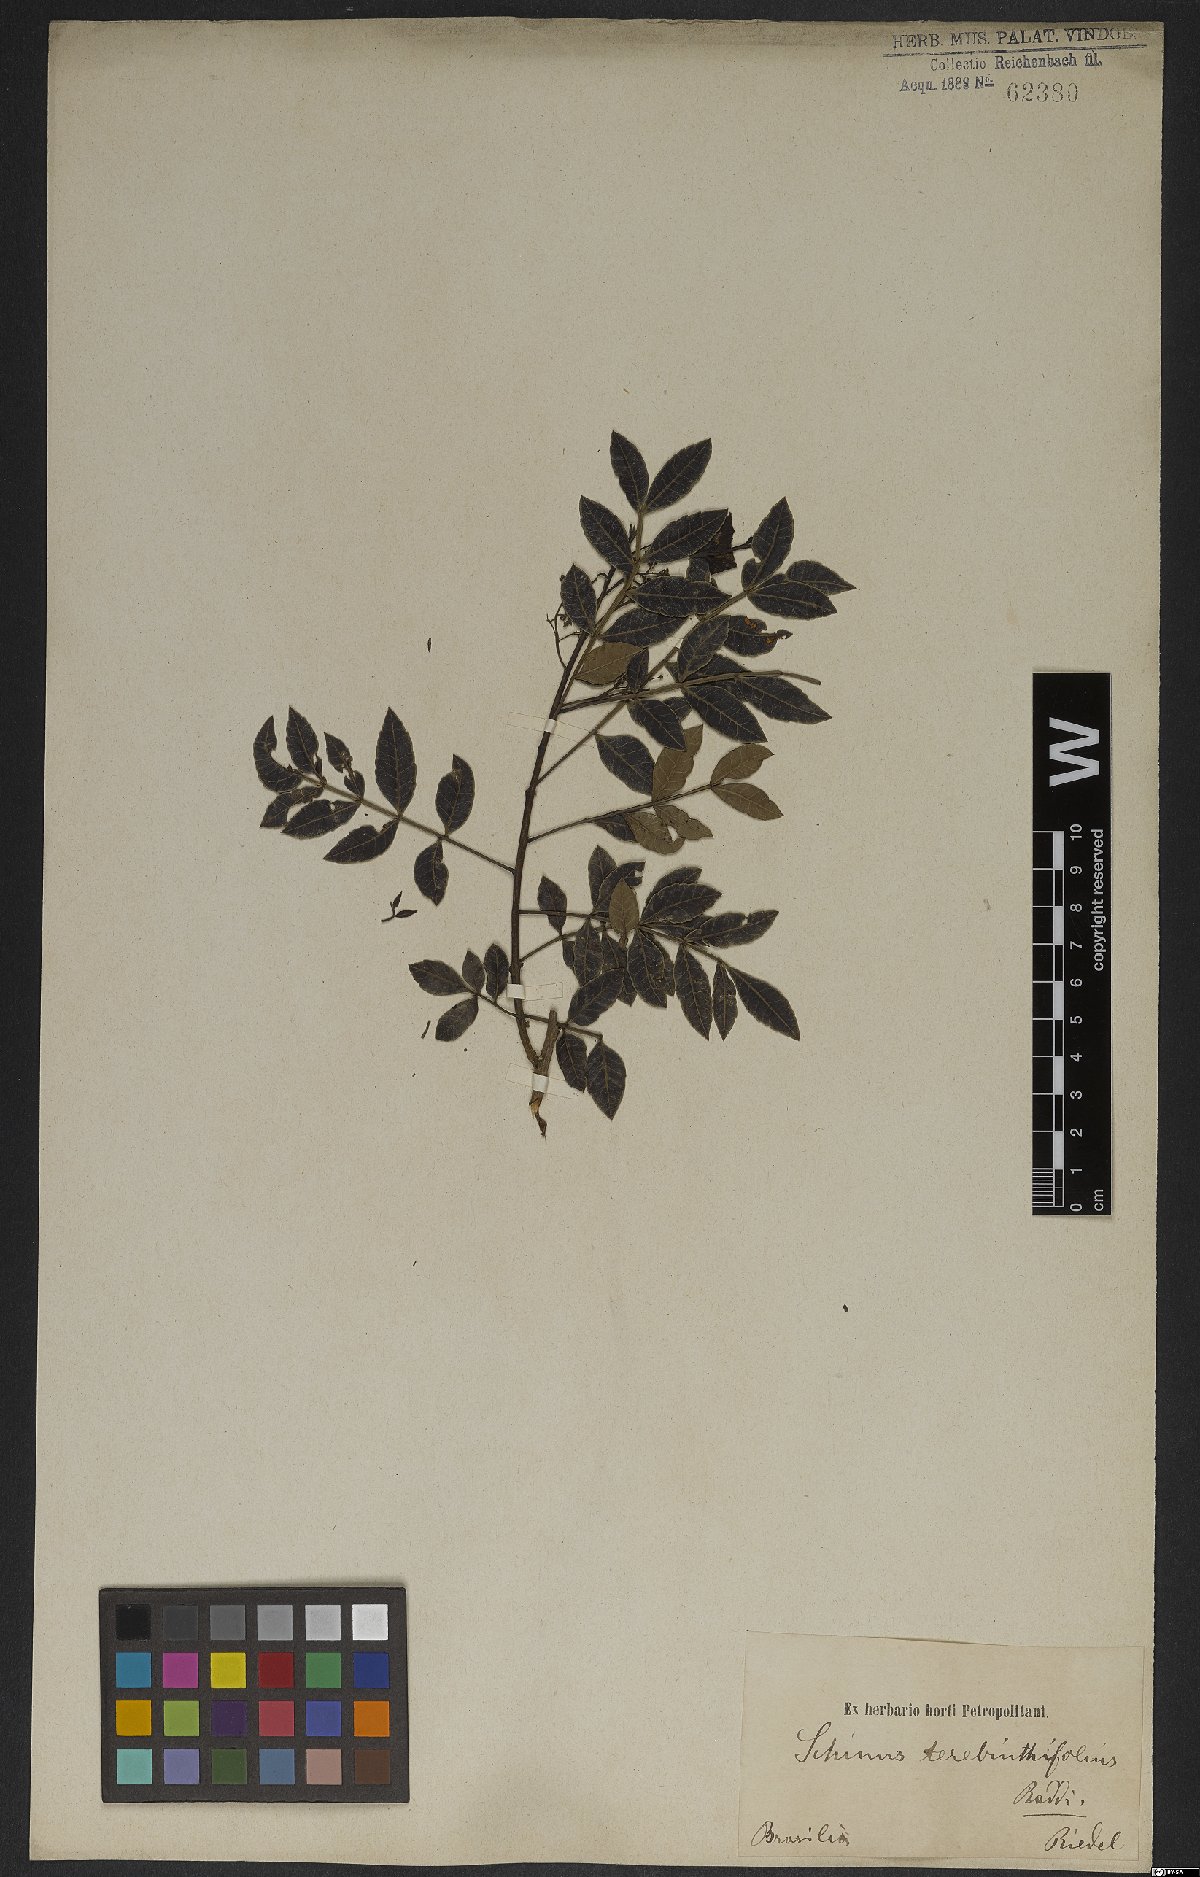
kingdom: Plantae
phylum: Tracheophyta
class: Magnoliopsida
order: Sapindales
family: Anacardiaceae
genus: Schinus
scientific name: Schinus terebinthifolia
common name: Brazilian peppertree
